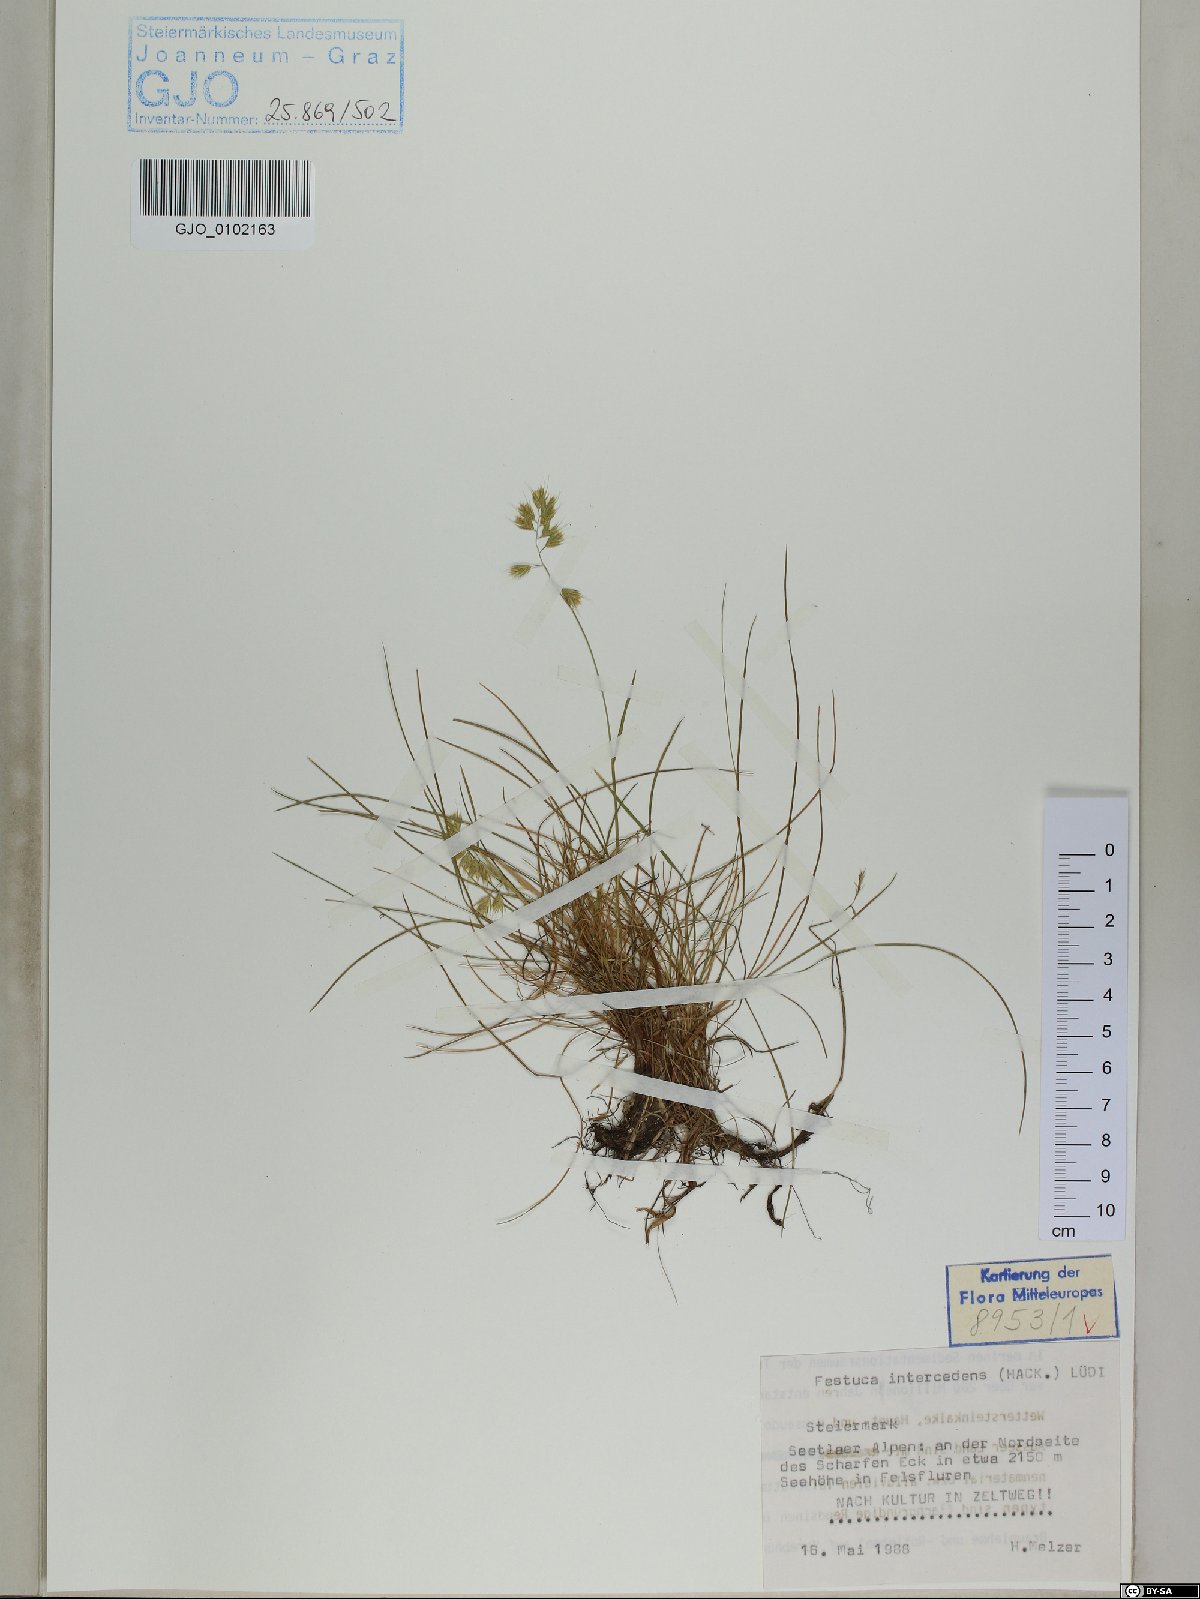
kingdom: Plantae
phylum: Tracheophyta
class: Liliopsida
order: Poales
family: Poaceae
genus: Festuca
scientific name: Festuca intercedens
